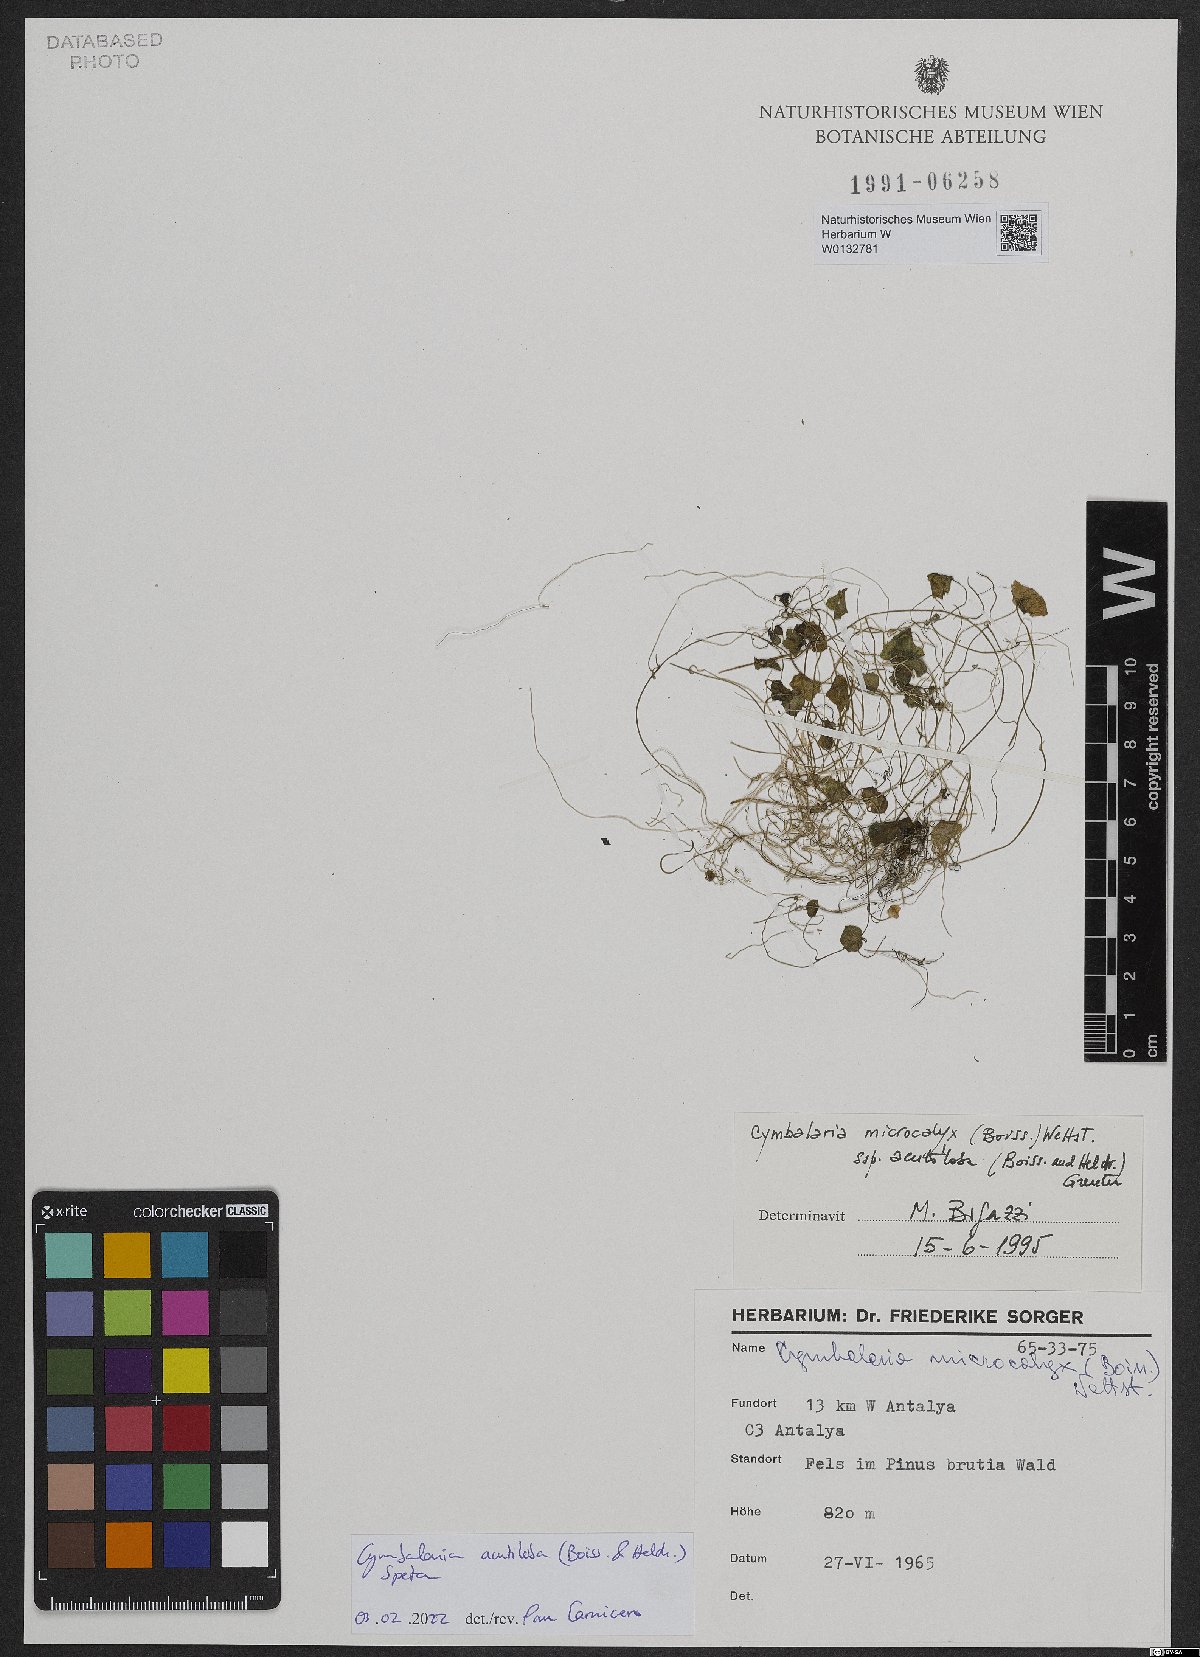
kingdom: Plantae
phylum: Tracheophyta
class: Magnoliopsida
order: Lamiales
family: Plantaginaceae
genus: Cymbalaria
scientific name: Cymbalaria acutiloba
